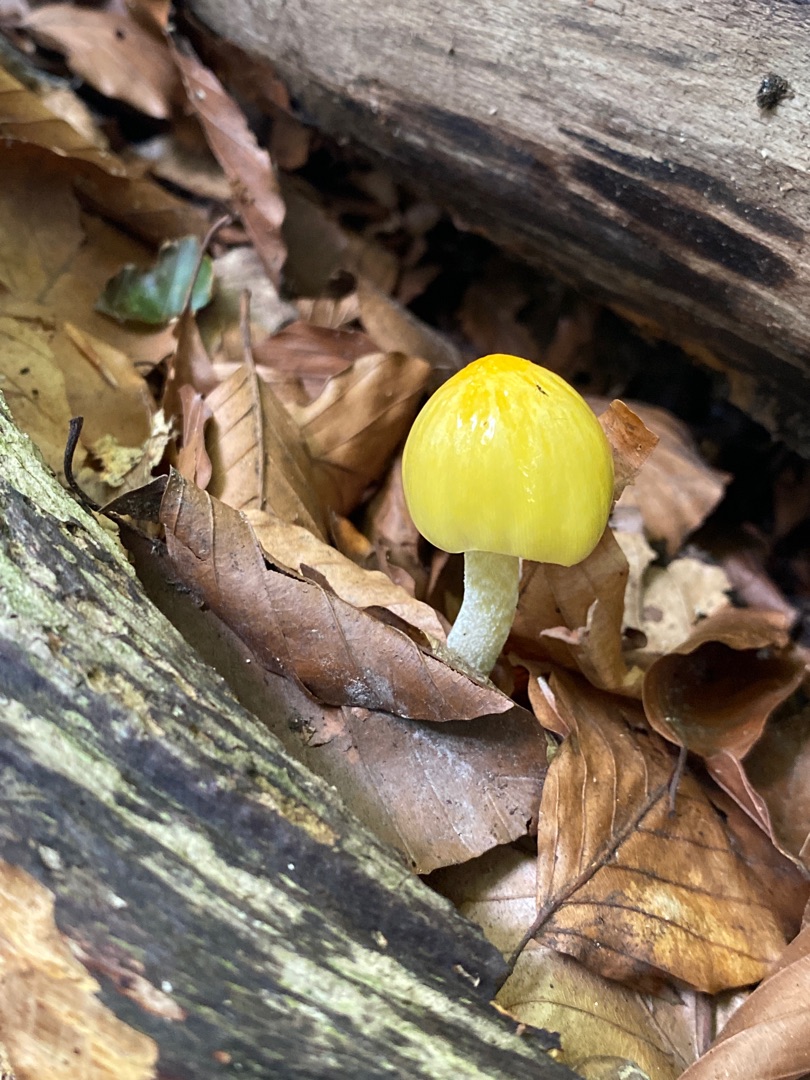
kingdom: Fungi
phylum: Basidiomycota
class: Agaricomycetes
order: Agaricales
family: Bolbitiaceae
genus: Bolbitius
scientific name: Bolbitius titubans
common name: Almindelig gulhat
